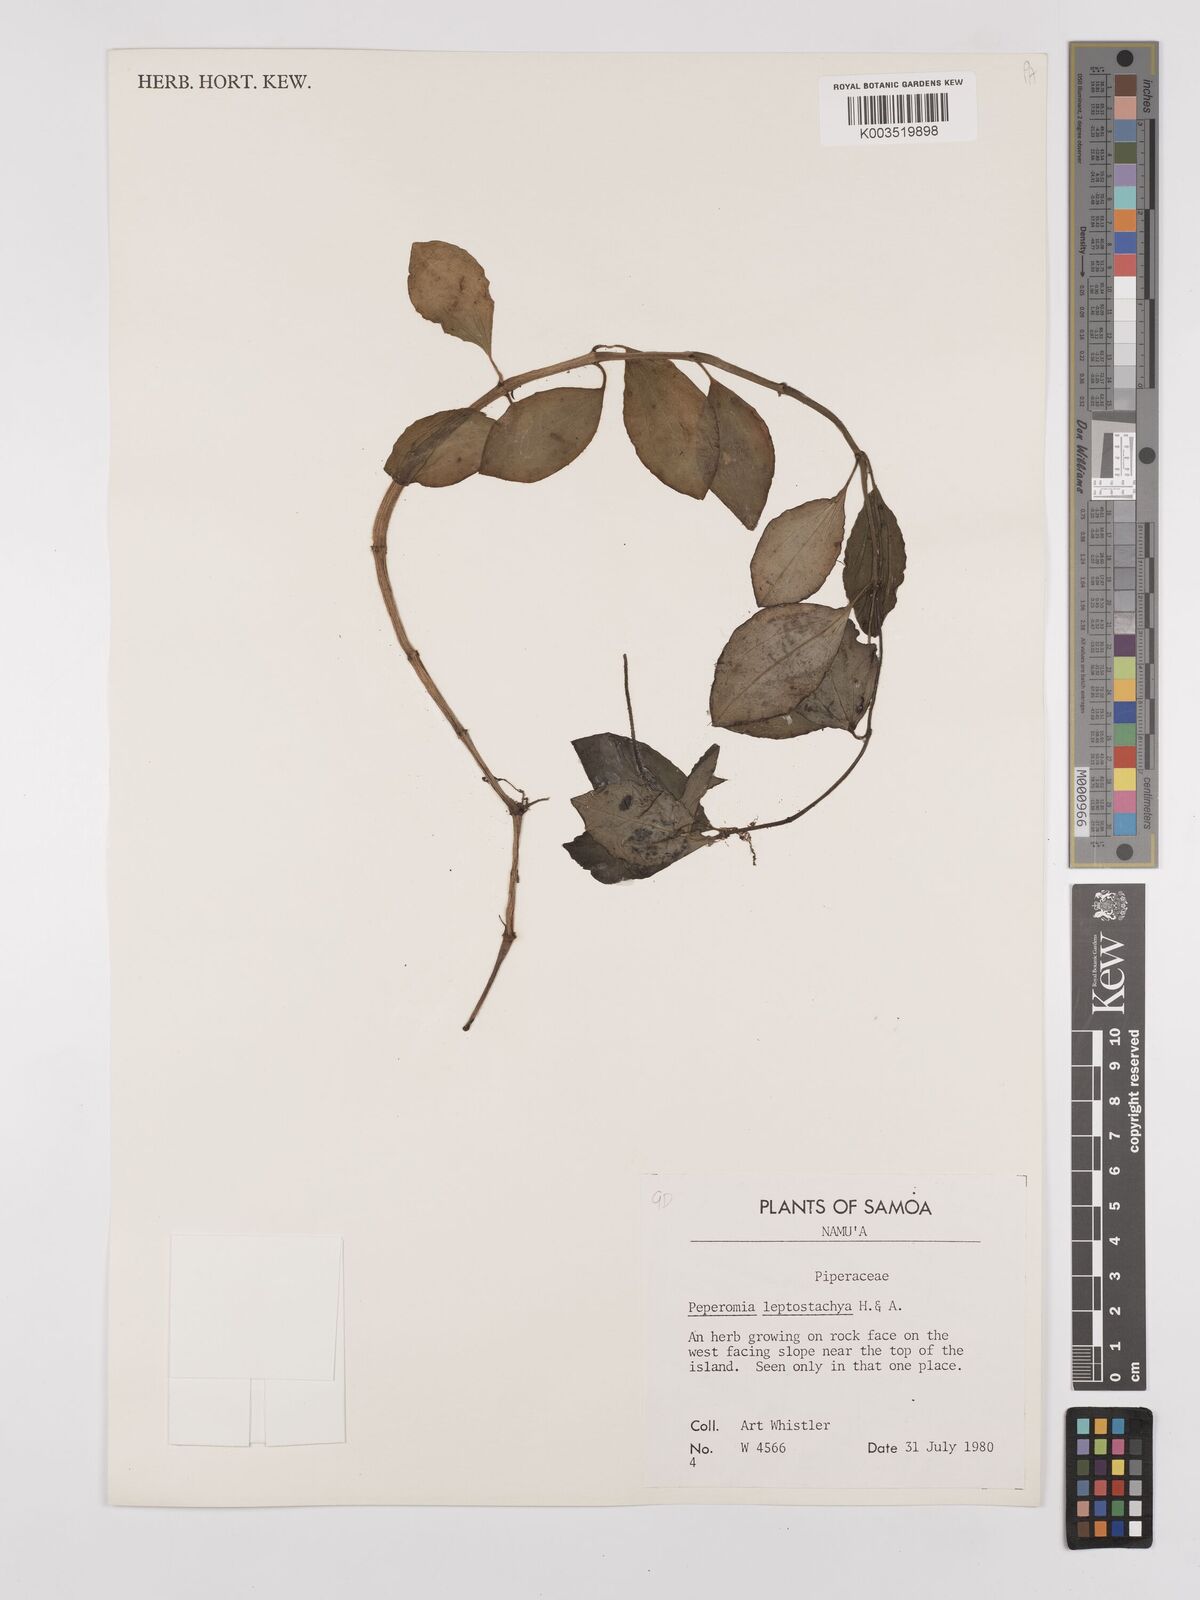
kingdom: Plantae
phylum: Tracheophyta
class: Magnoliopsida
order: Piperales
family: Piperaceae
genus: Peperomia
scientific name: Peperomia leptostachya
